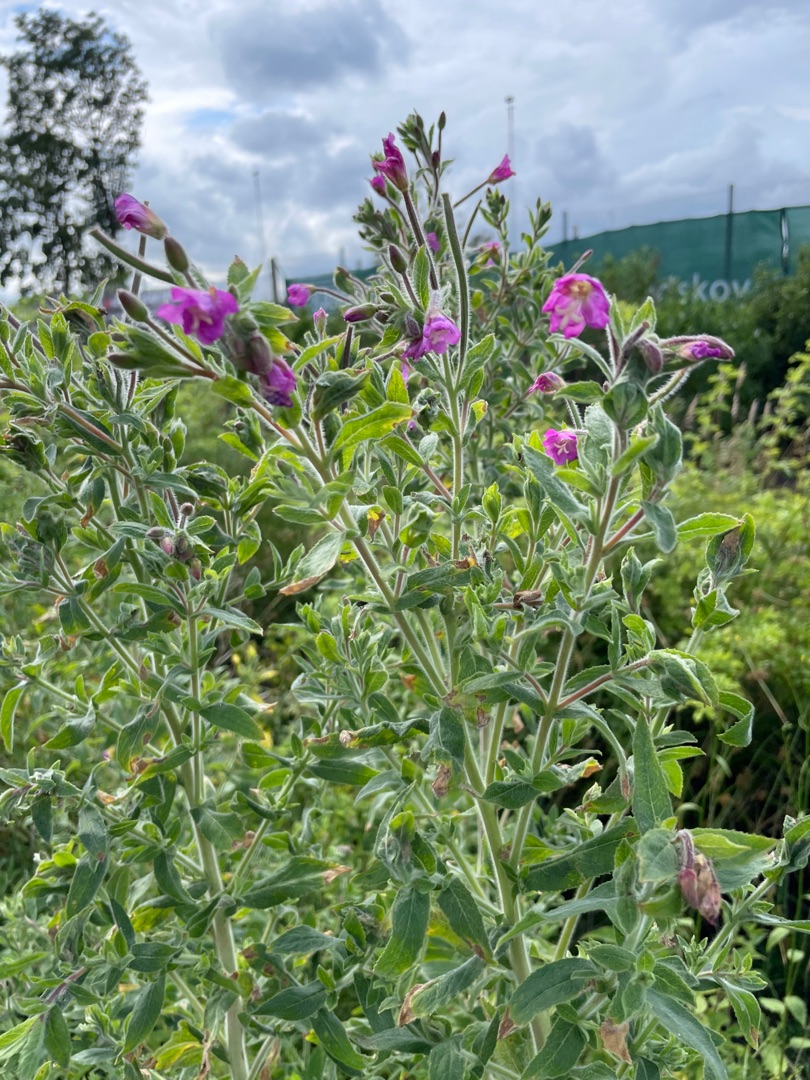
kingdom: Plantae
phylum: Tracheophyta
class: Magnoliopsida
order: Myrtales
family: Onagraceae
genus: Epilobium
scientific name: Epilobium hirsutum
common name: Lådden dueurt
